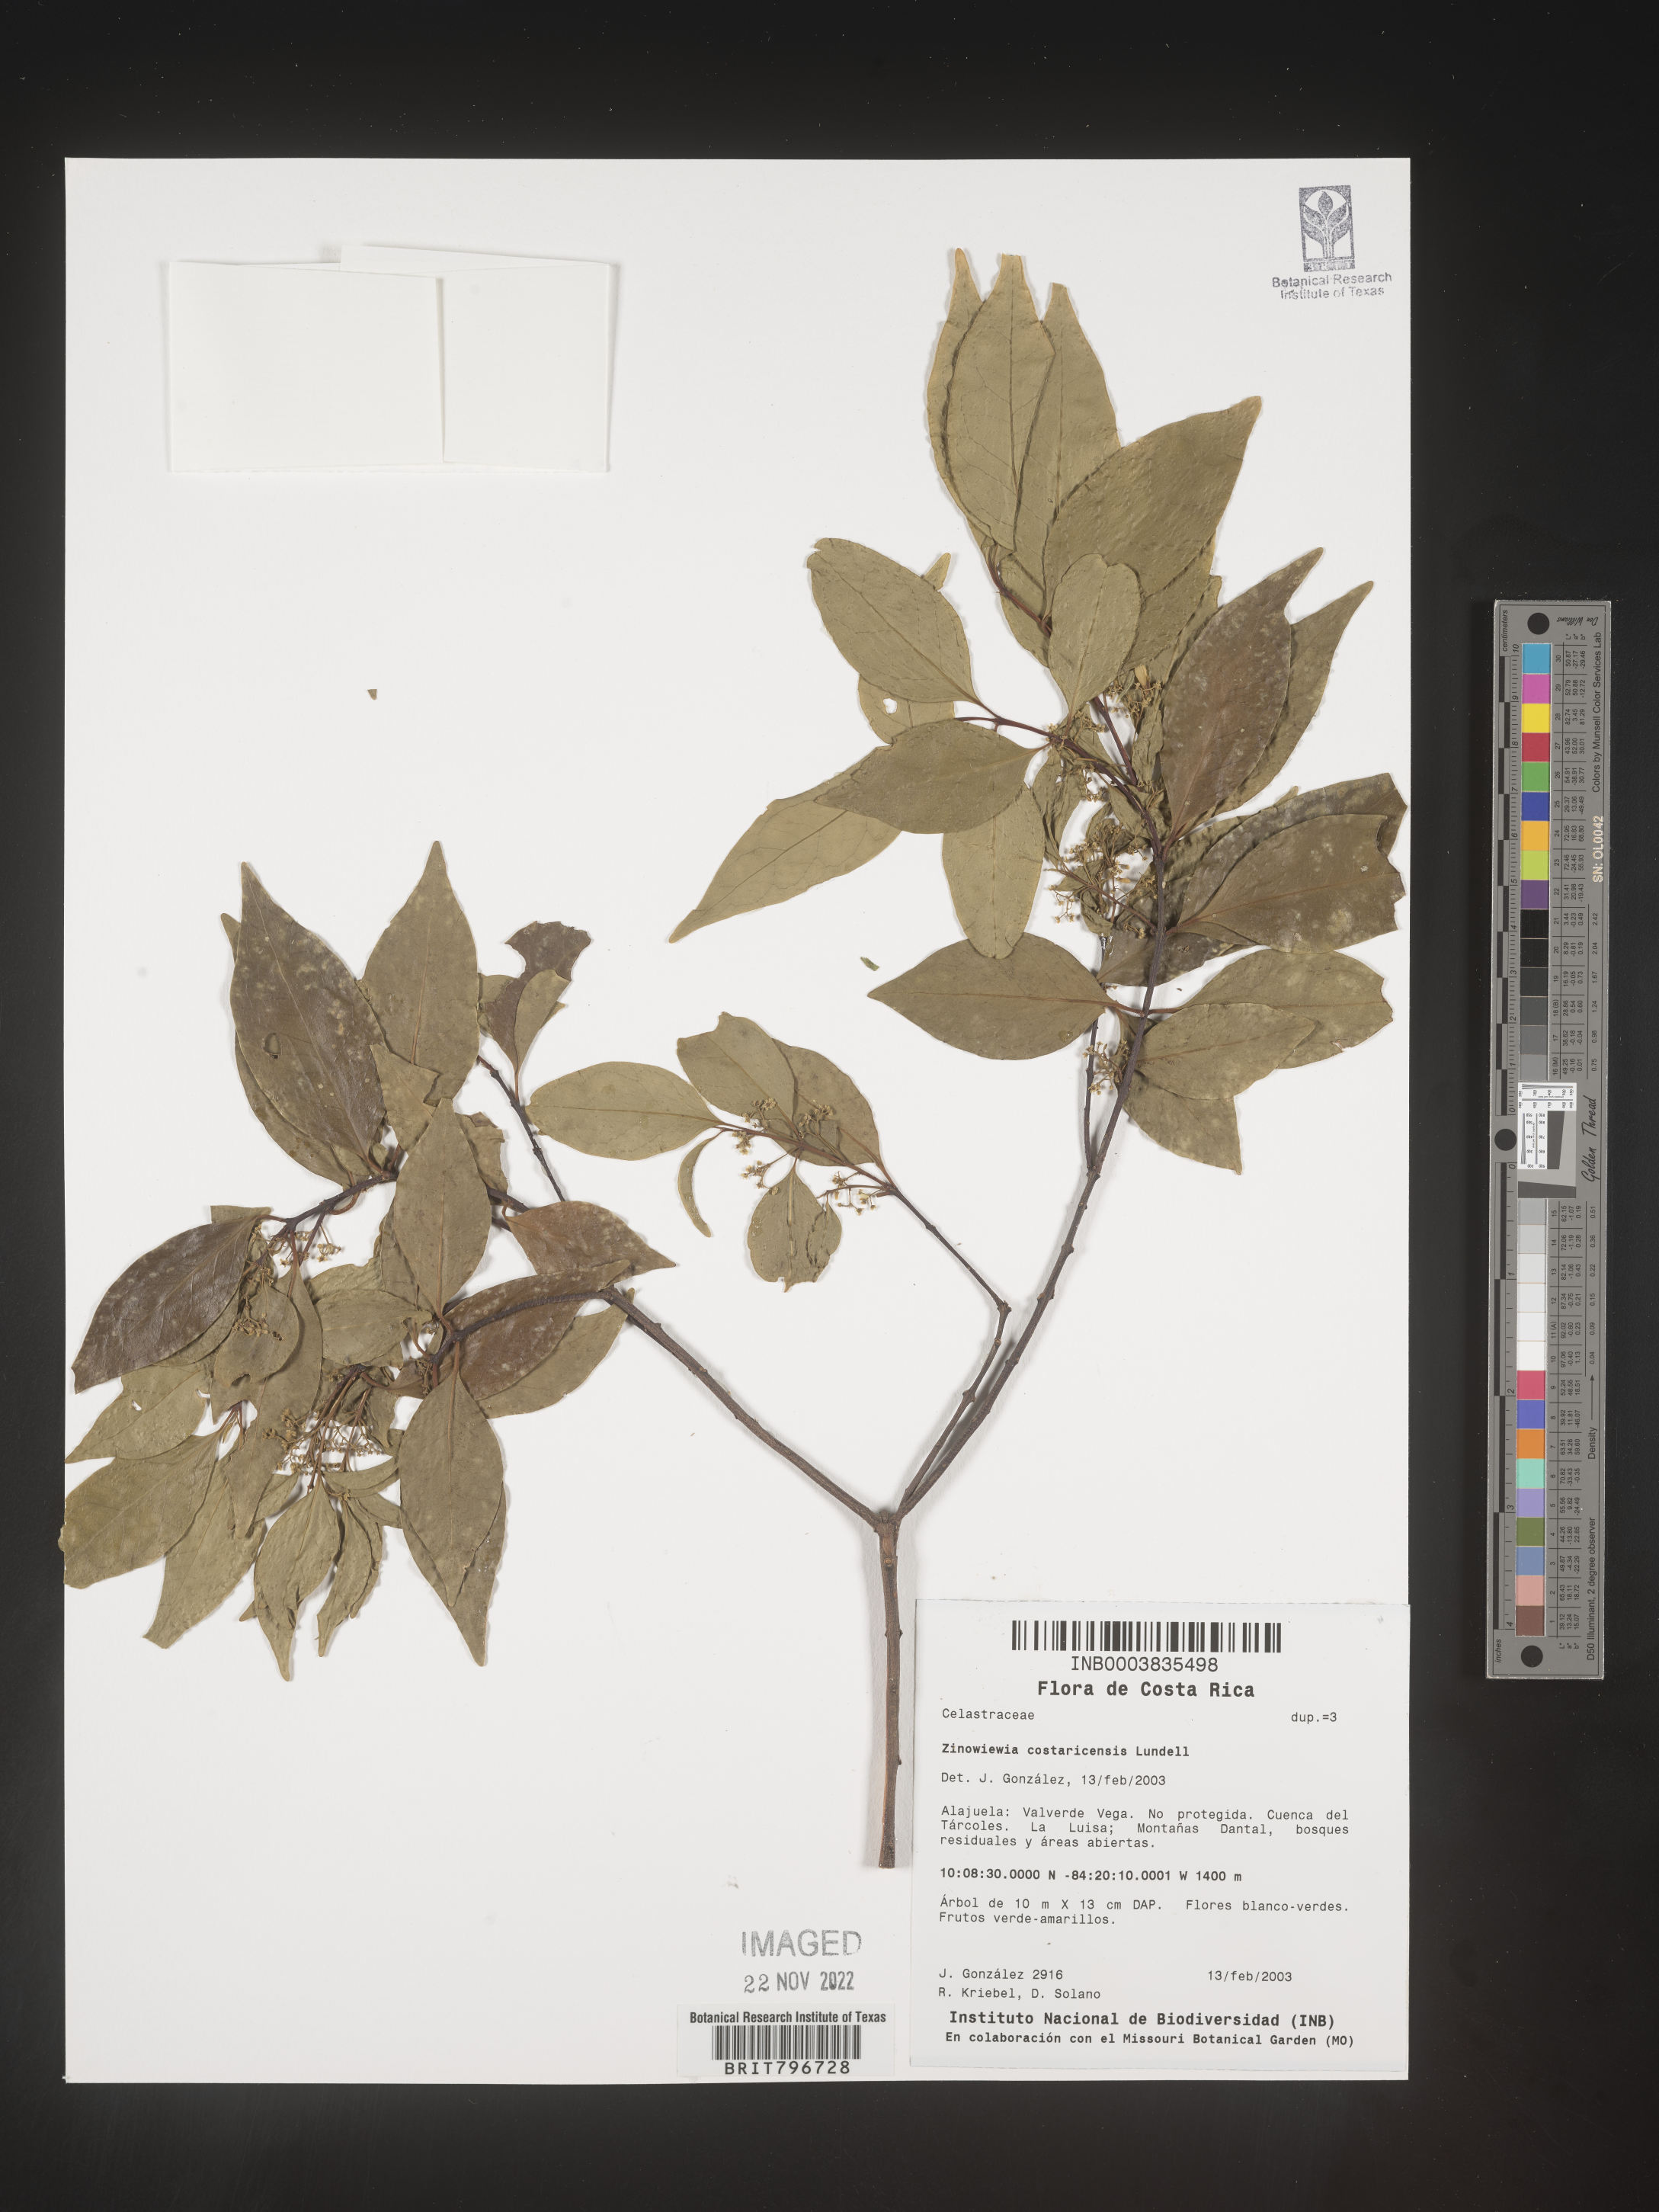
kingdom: Plantae
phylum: Tracheophyta
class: Magnoliopsida
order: Celastrales
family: Celastraceae
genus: Zinowiewia
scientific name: Zinowiewia
